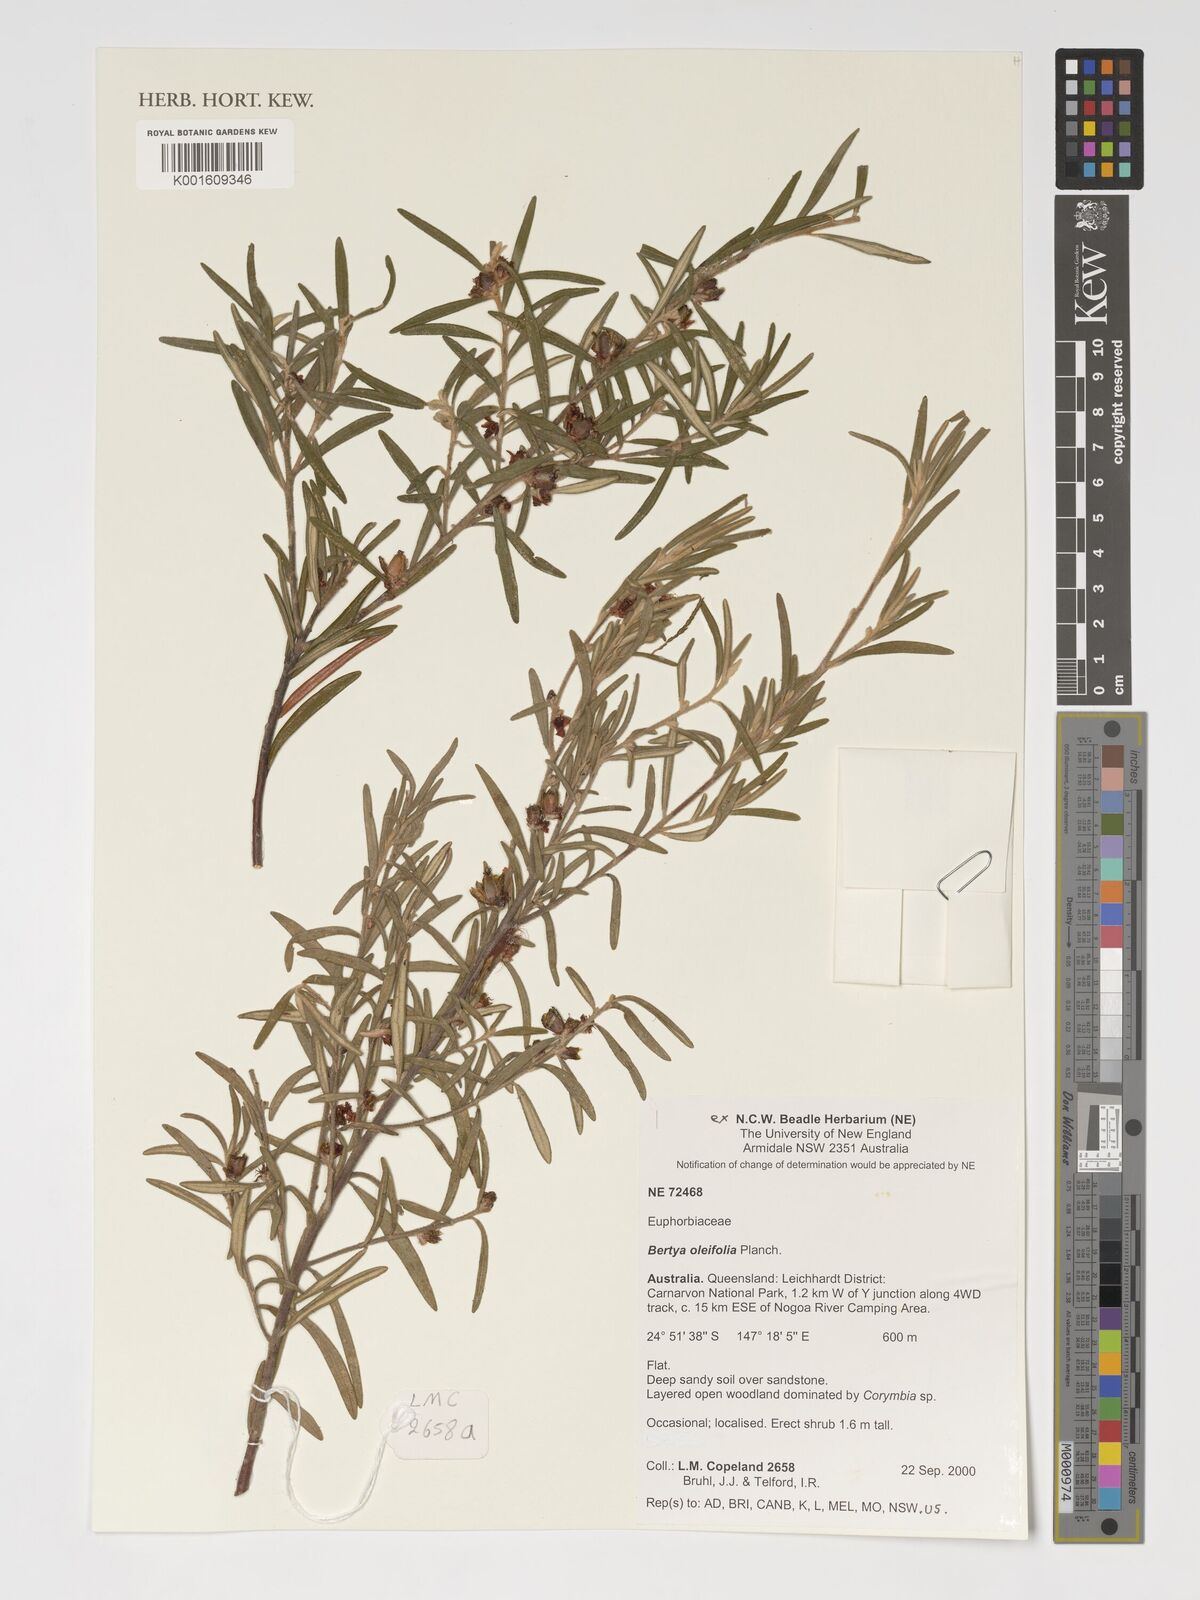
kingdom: Plantae
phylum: Tracheophyta
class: Magnoliopsida
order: Malpighiales
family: Euphorbiaceae
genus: Bertya
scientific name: Bertya oleifolia
